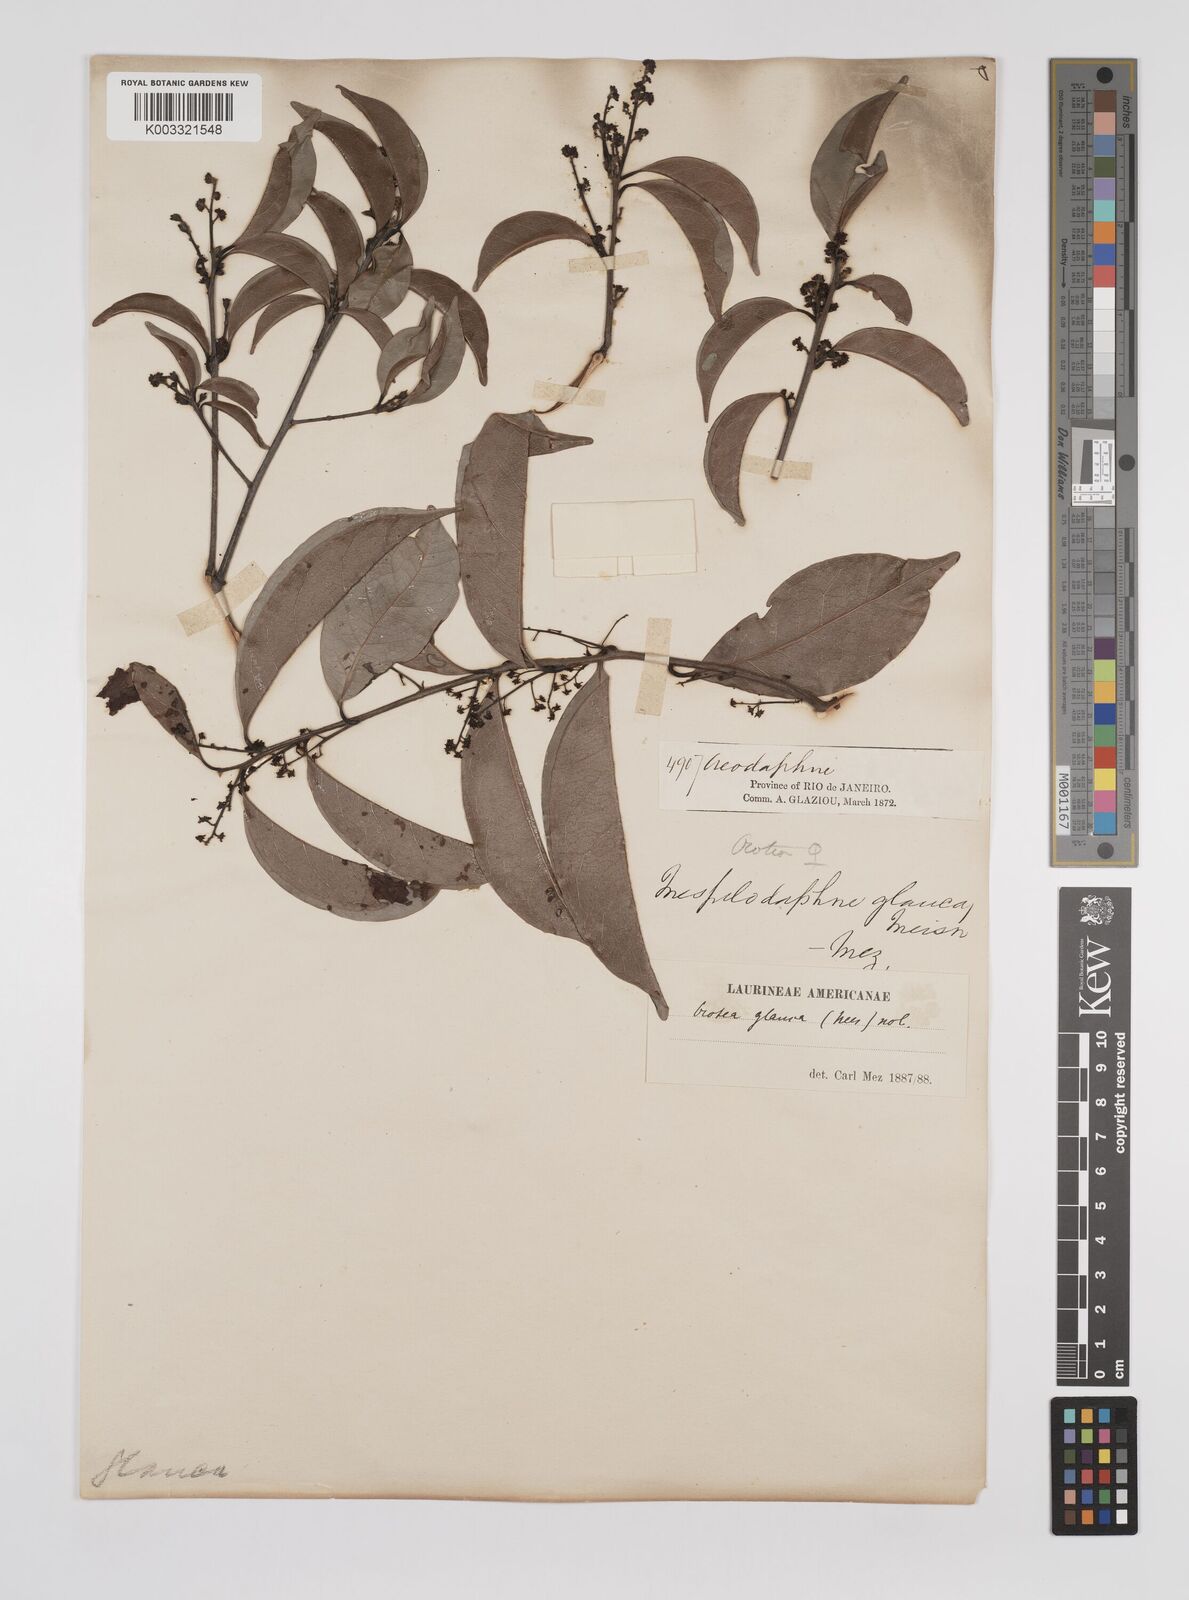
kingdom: Plantae
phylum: Tracheophyta
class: Magnoliopsida
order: Laurales
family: Lauraceae
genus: Mespilodaphne
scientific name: Mespilodaphne glauca
